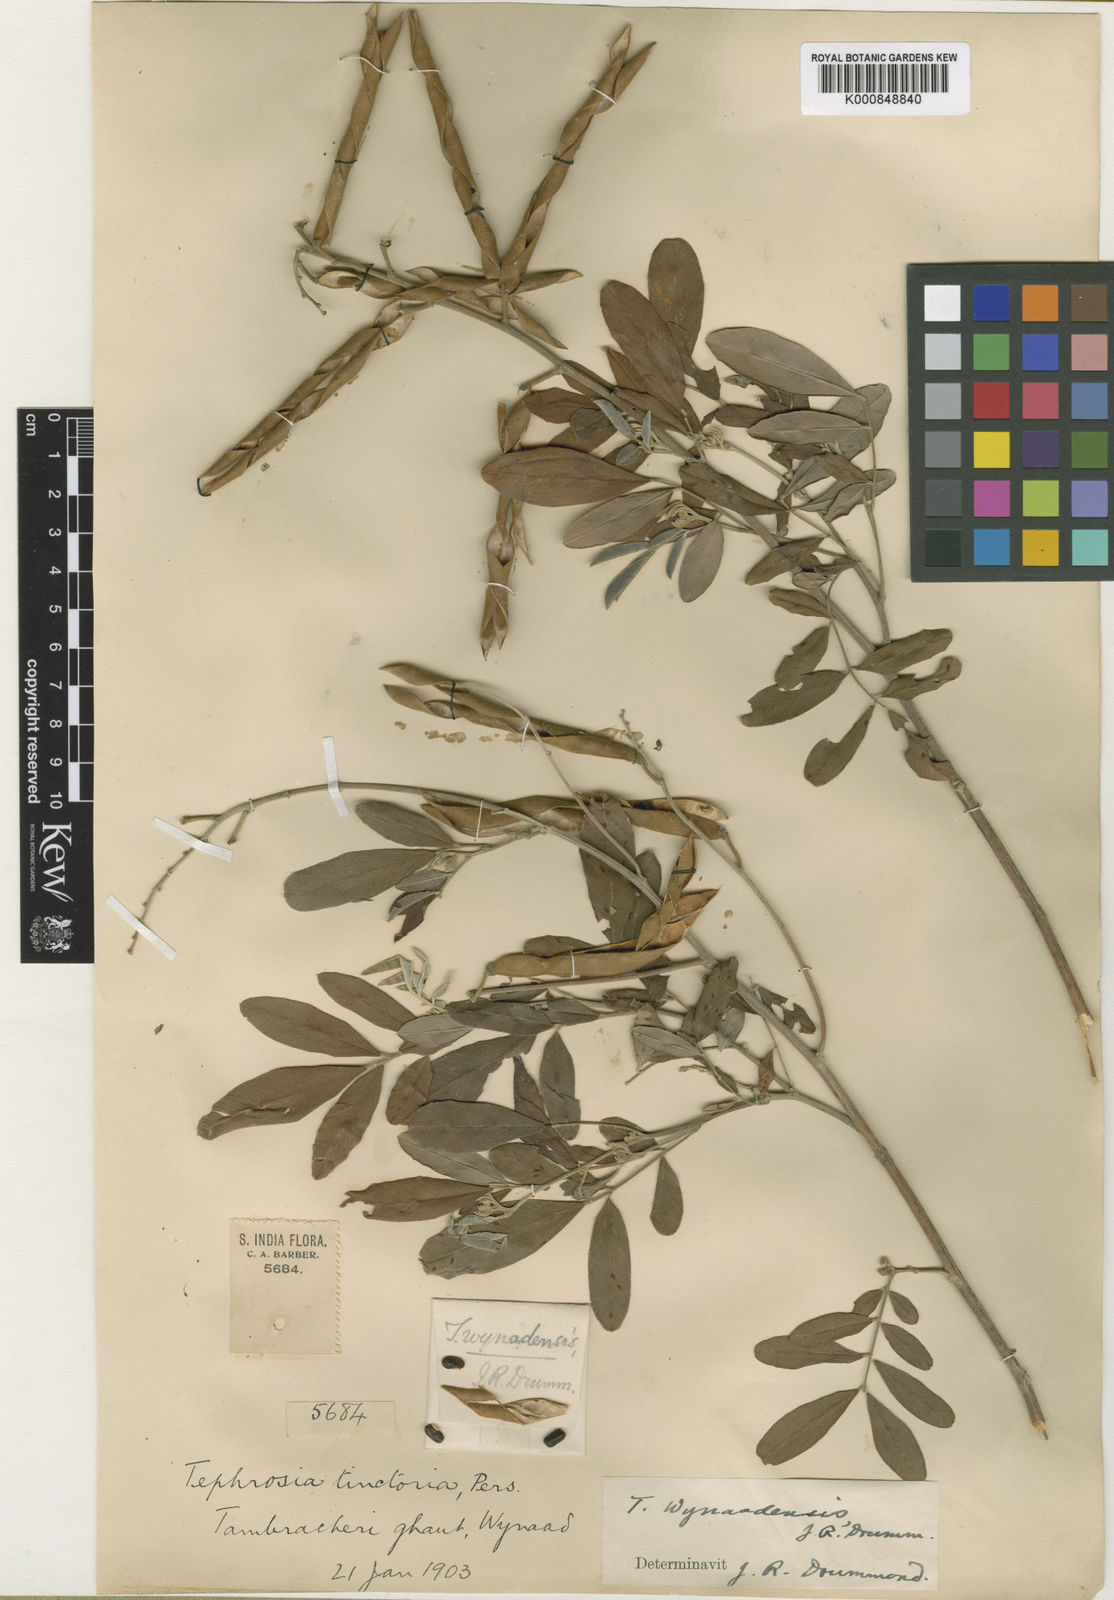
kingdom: Plantae
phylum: Tracheophyta
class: Magnoliopsida
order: Fabales
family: Fabaceae
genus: Tephrosia
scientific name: Tephrosia wynaadensis
